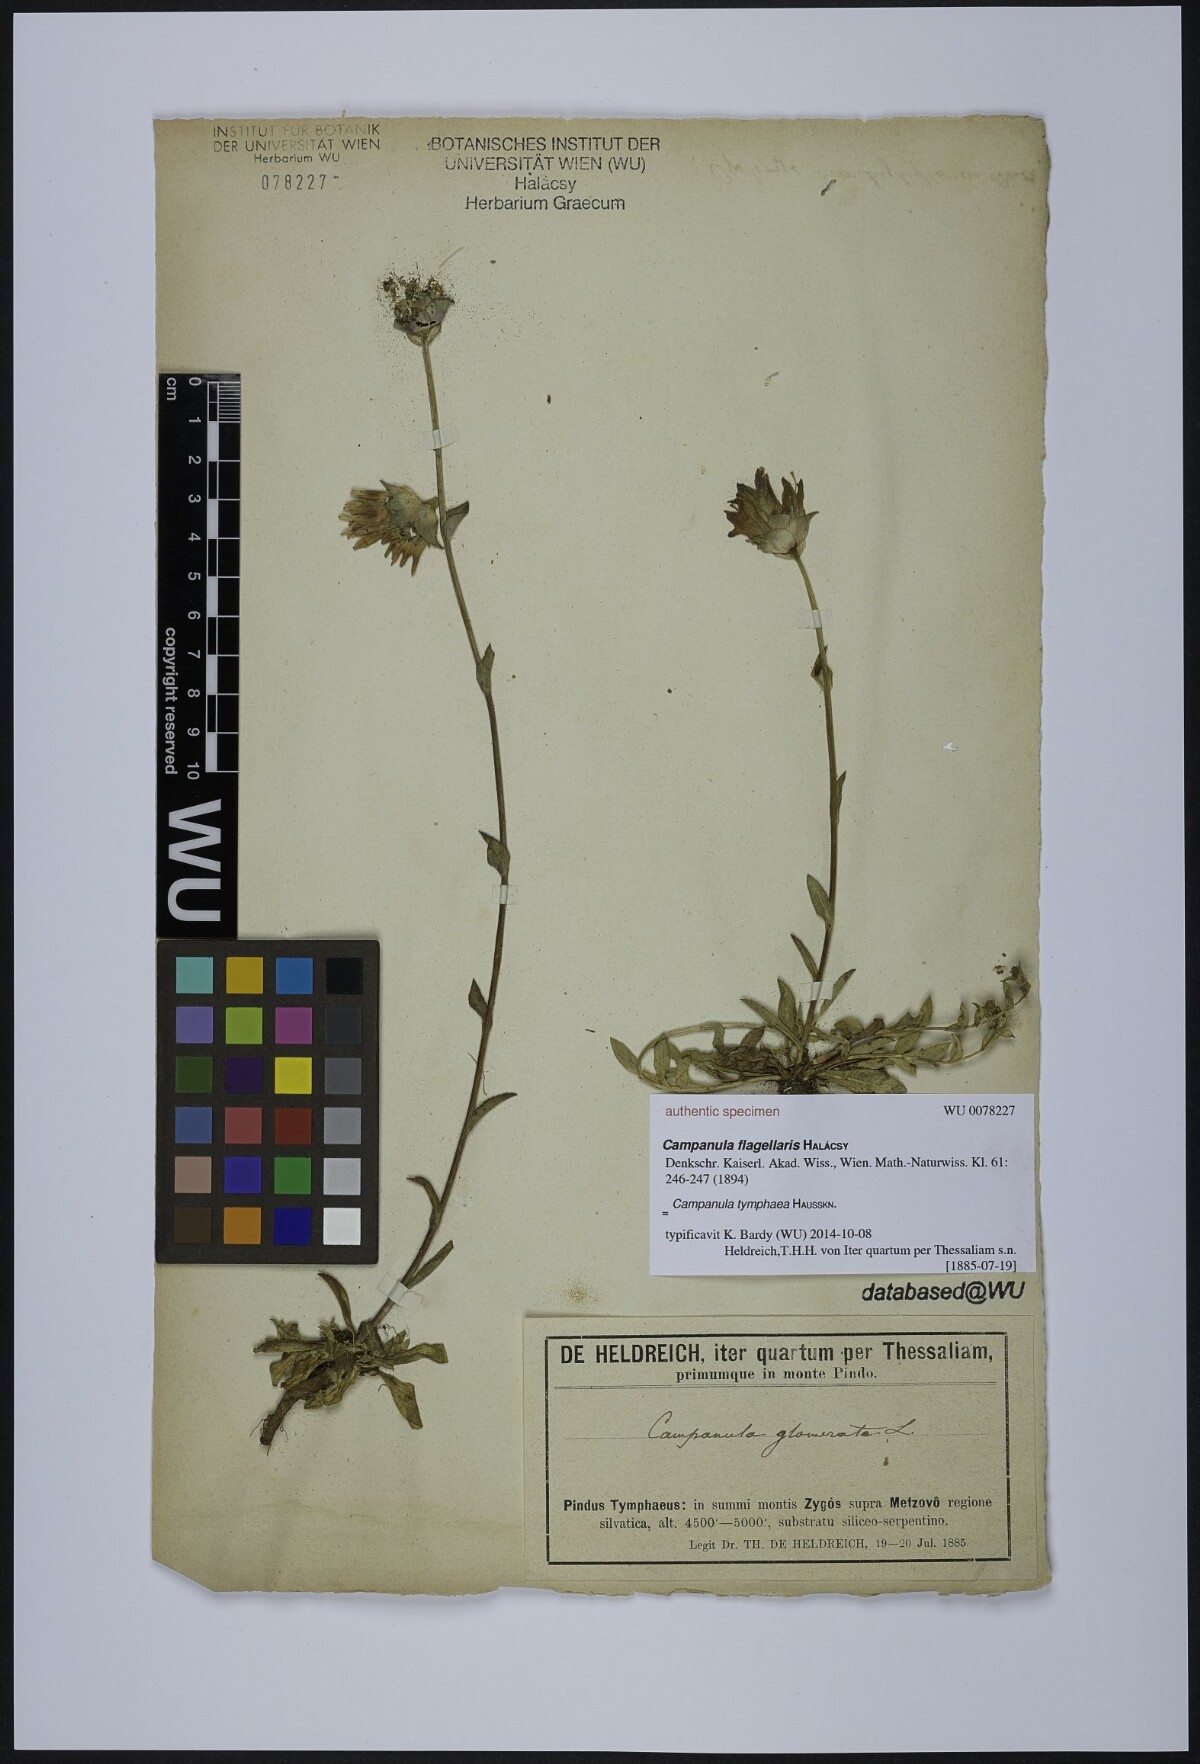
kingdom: Plantae
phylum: Tracheophyta
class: Magnoliopsida
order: Asterales
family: Campanulaceae
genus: Campanula
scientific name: Campanula tymphaea
